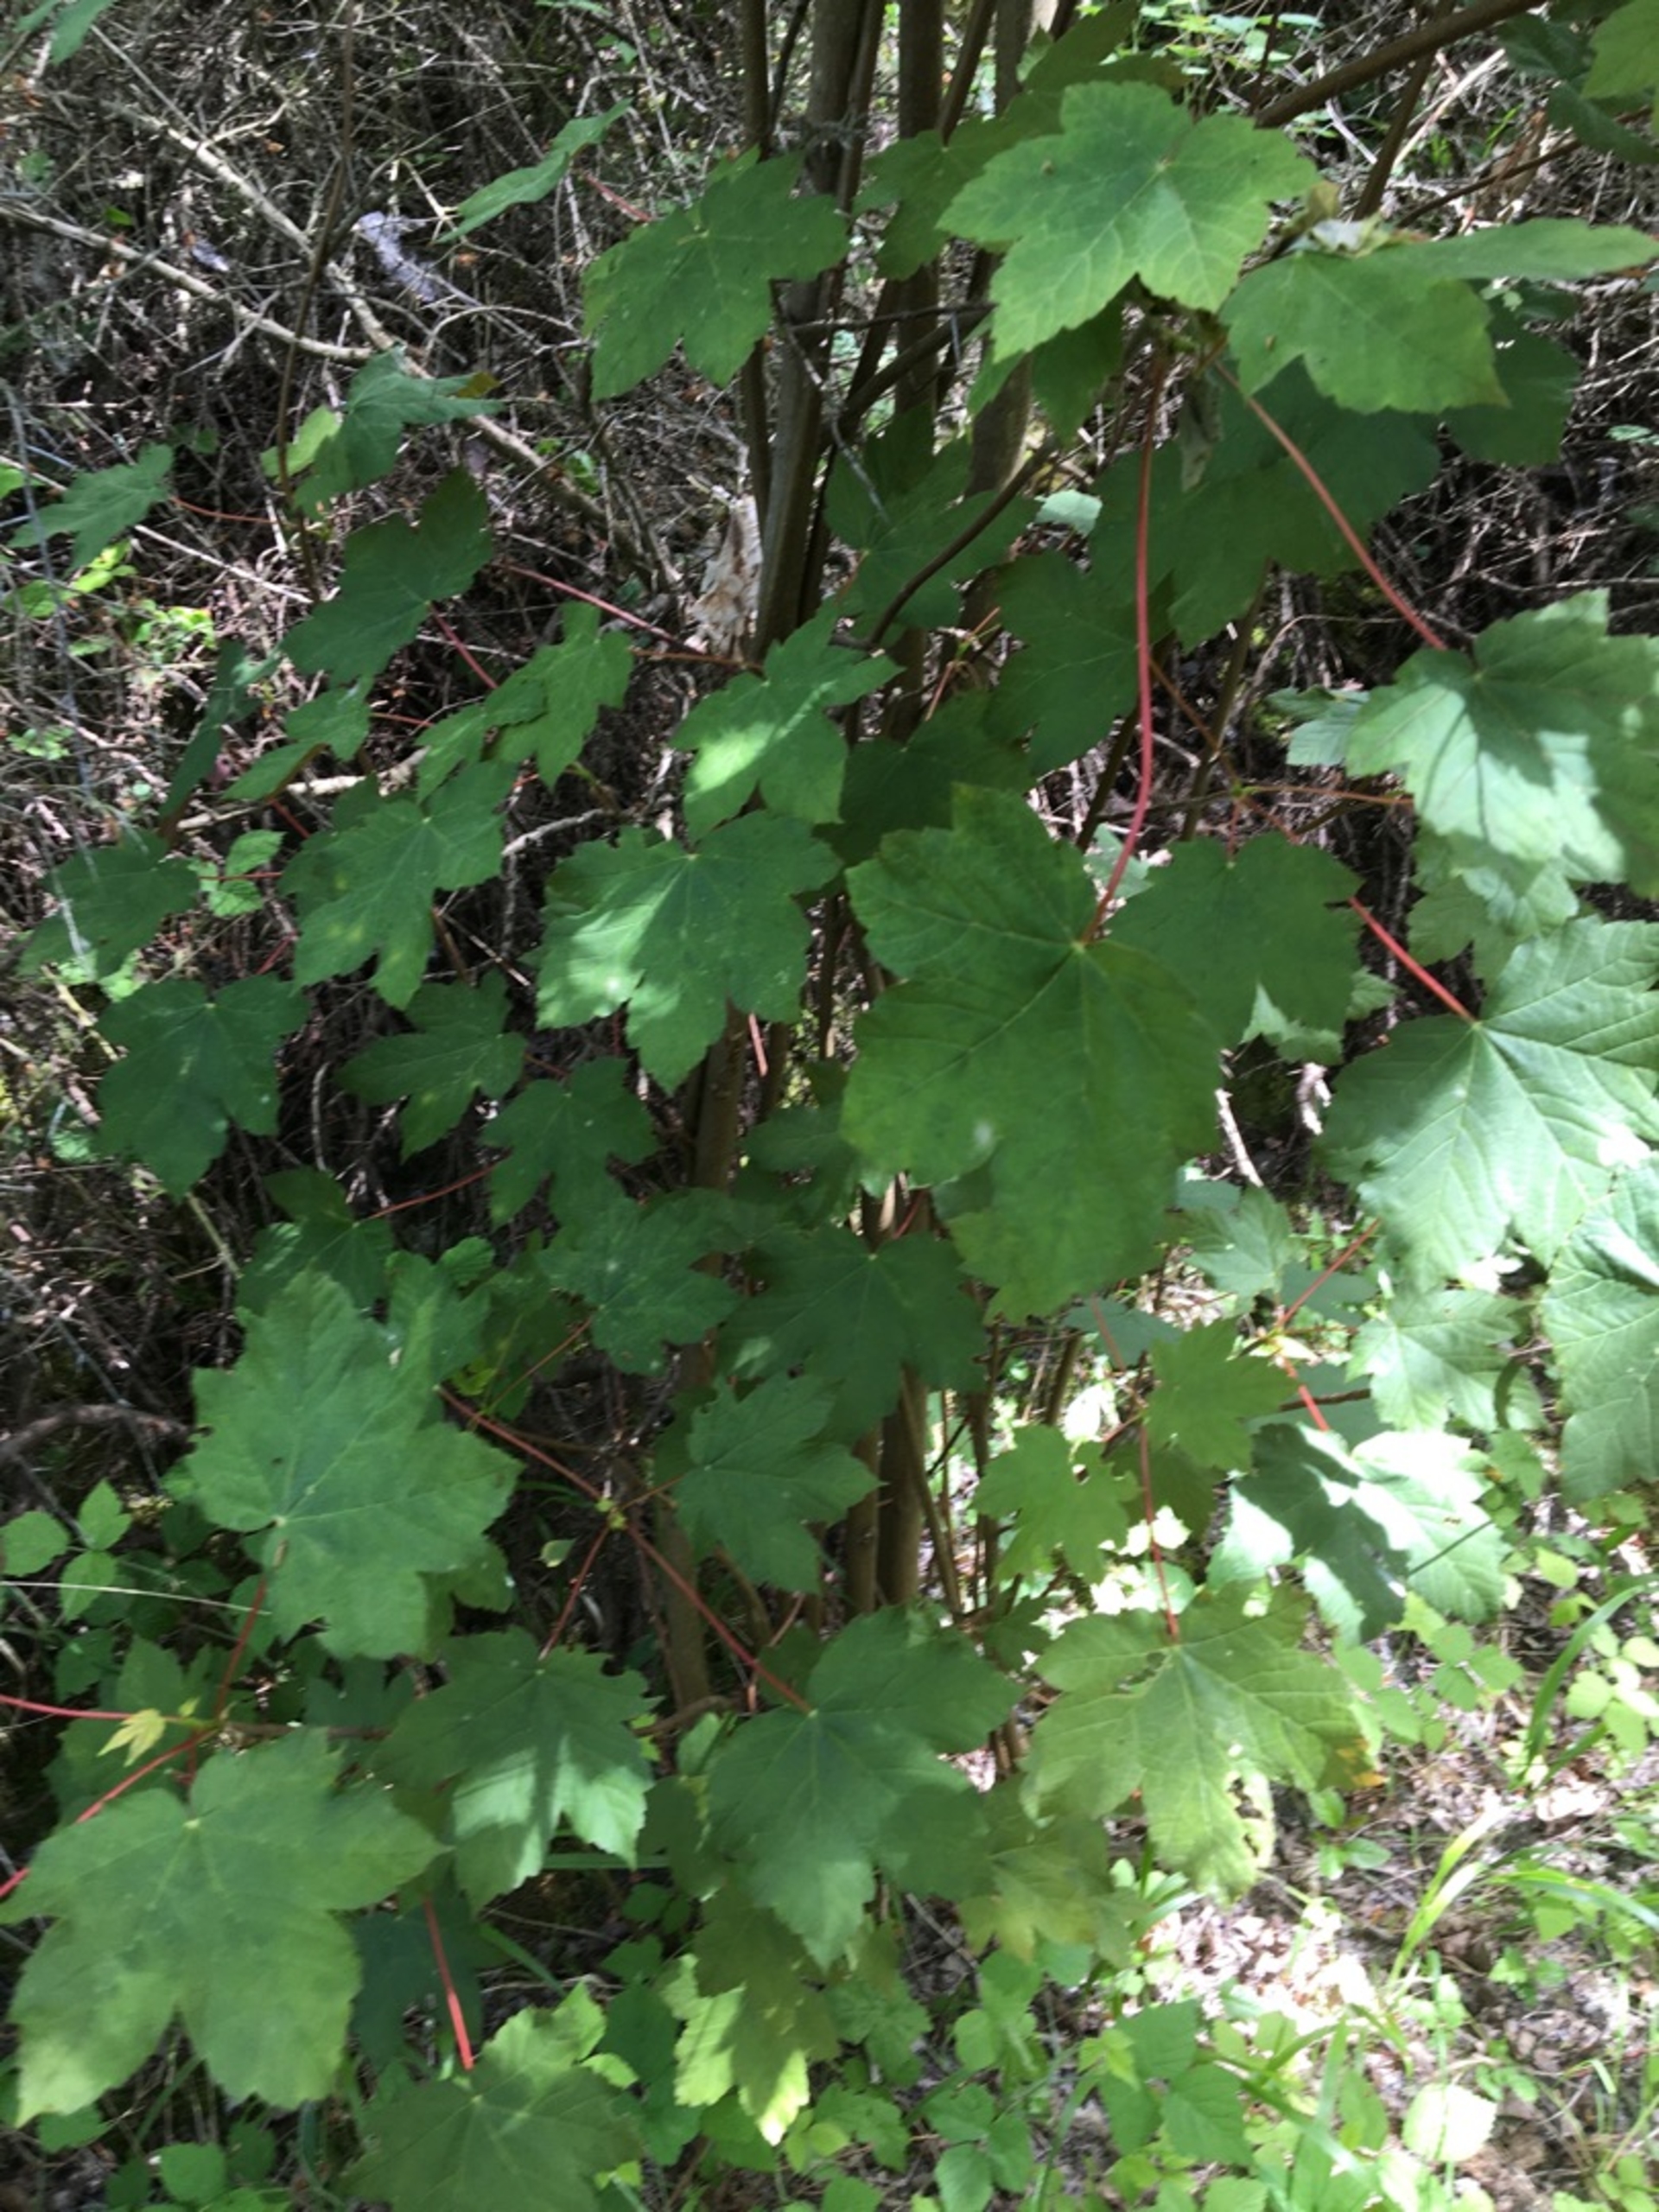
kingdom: Plantae
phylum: Tracheophyta
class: Magnoliopsida
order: Sapindales
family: Sapindaceae
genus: Acer
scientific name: Acer pseudoplatanus
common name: Ahorn
